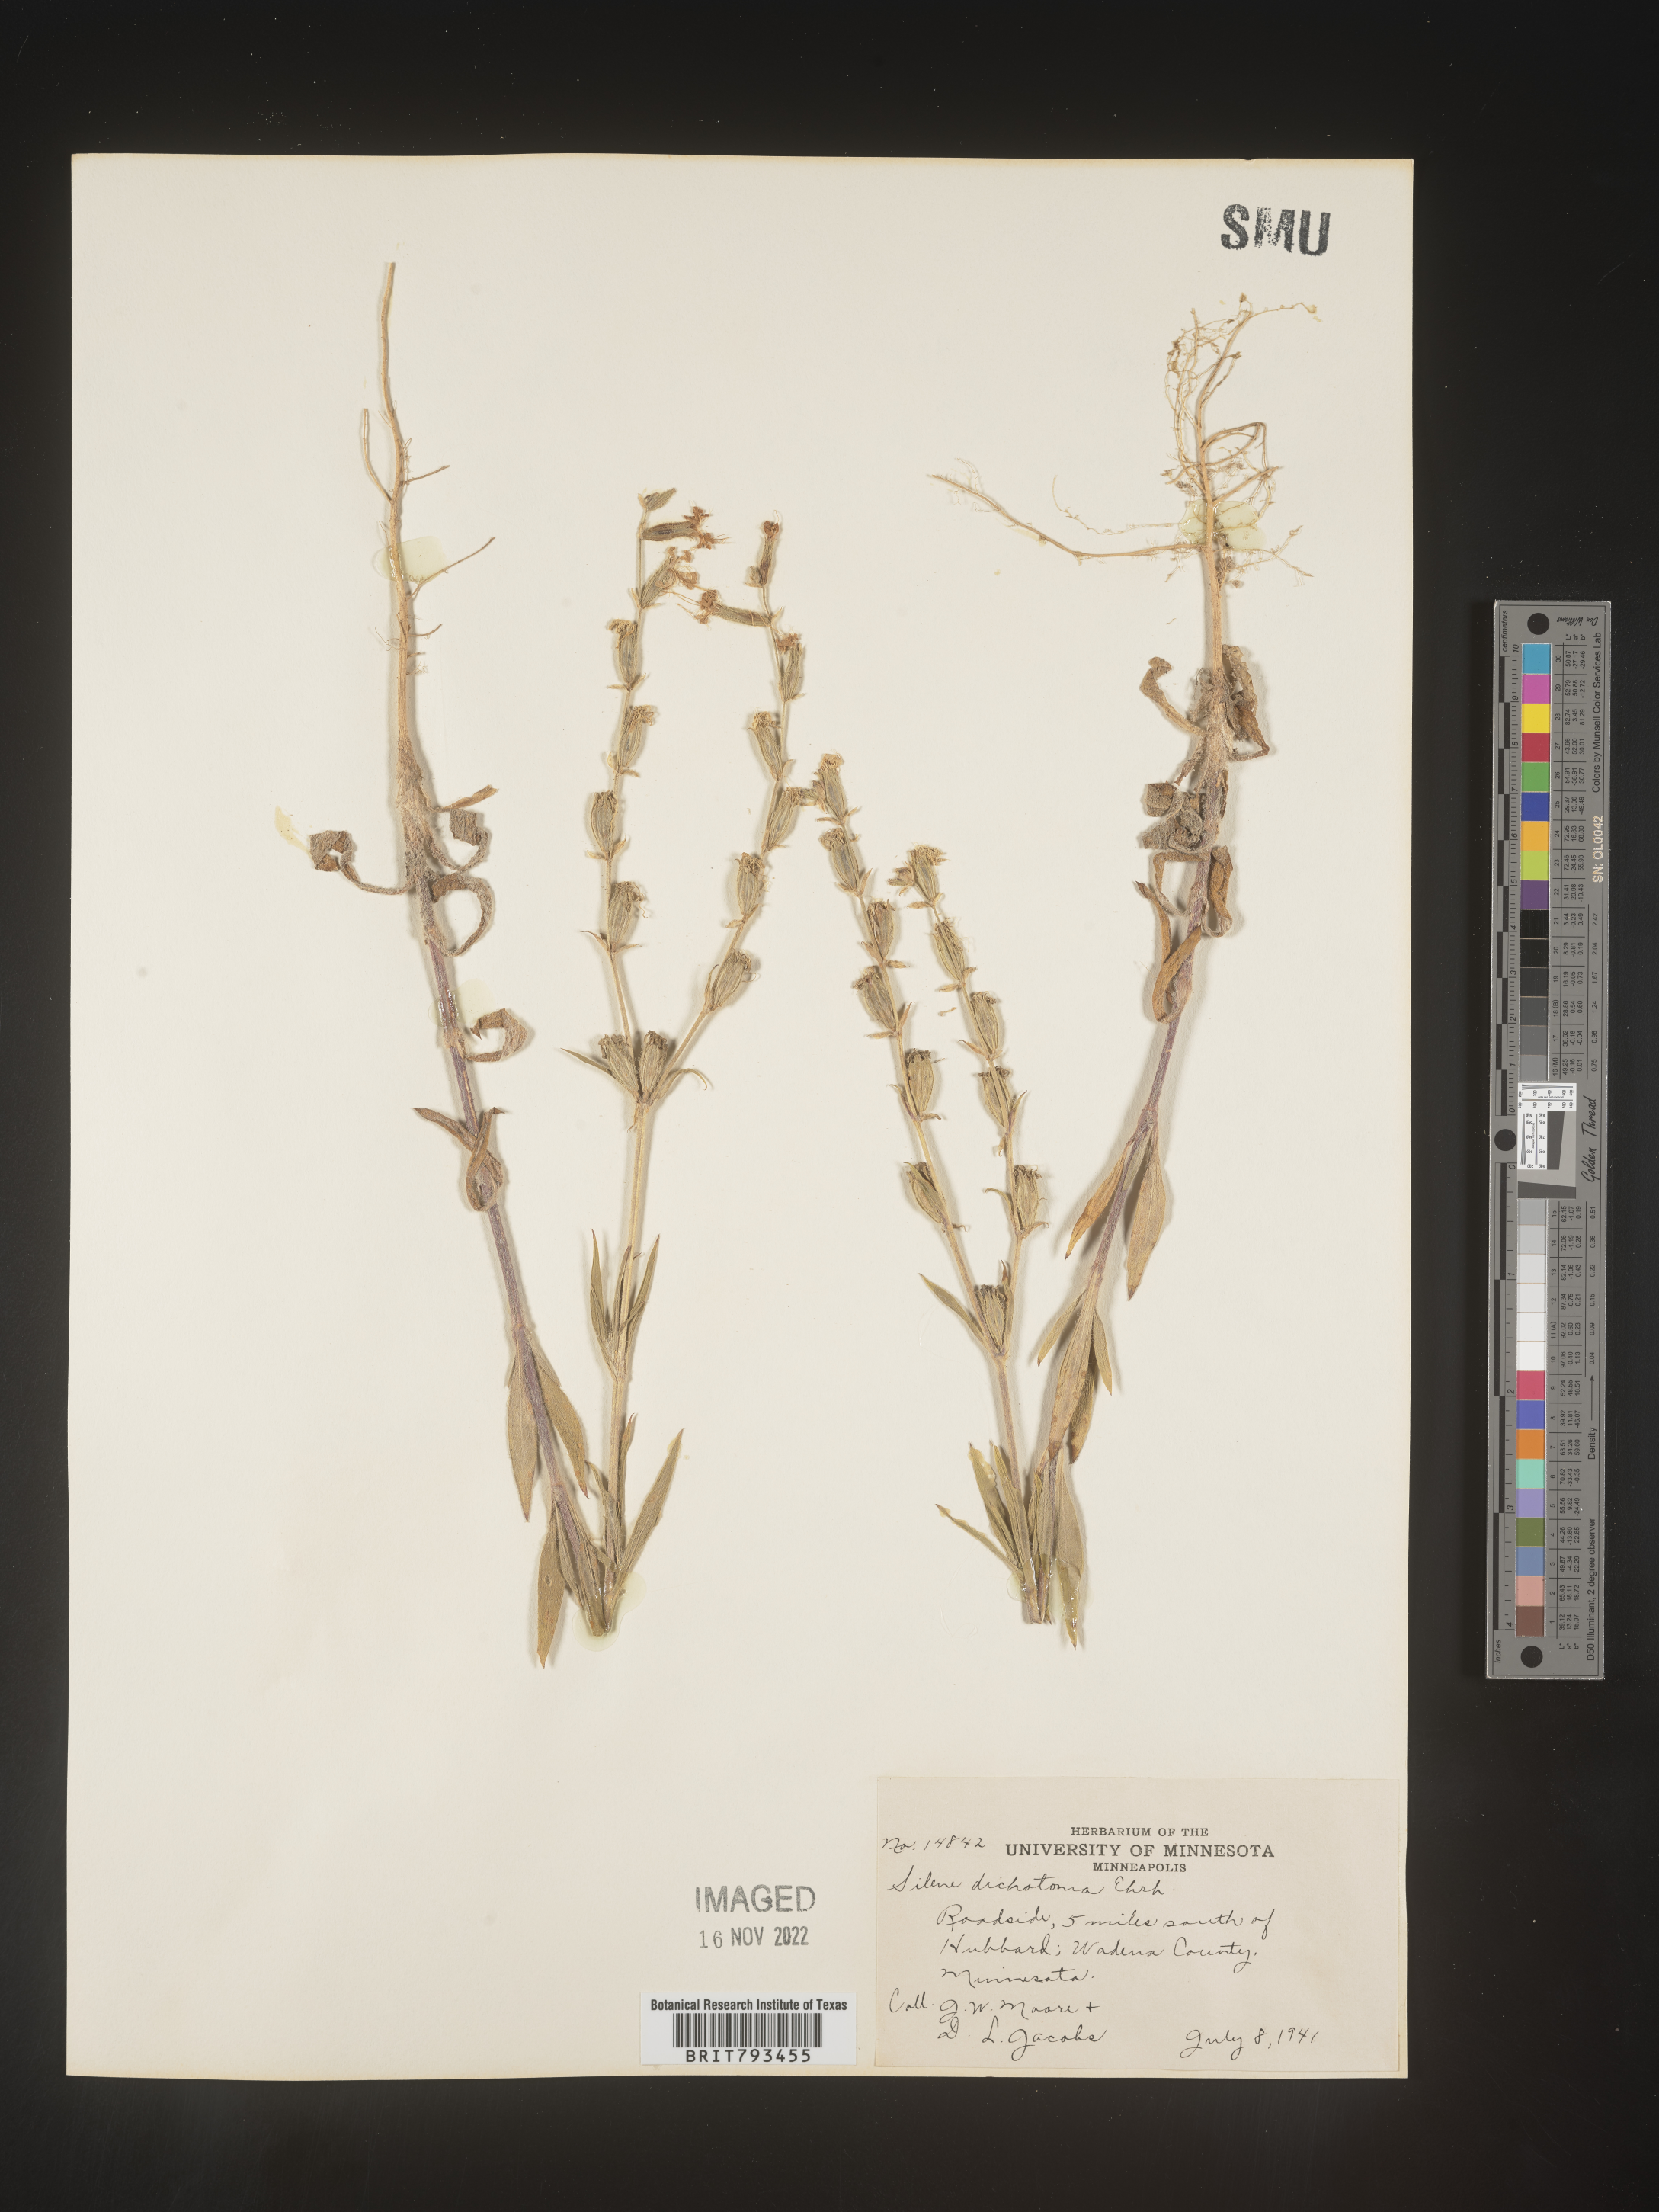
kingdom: Plantae
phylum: Tracheophyta
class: Magnoliopsida
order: Caryophyllales
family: Caryophyllaceae
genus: Silene
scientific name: Silene dichotoma
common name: Forked catchfly
